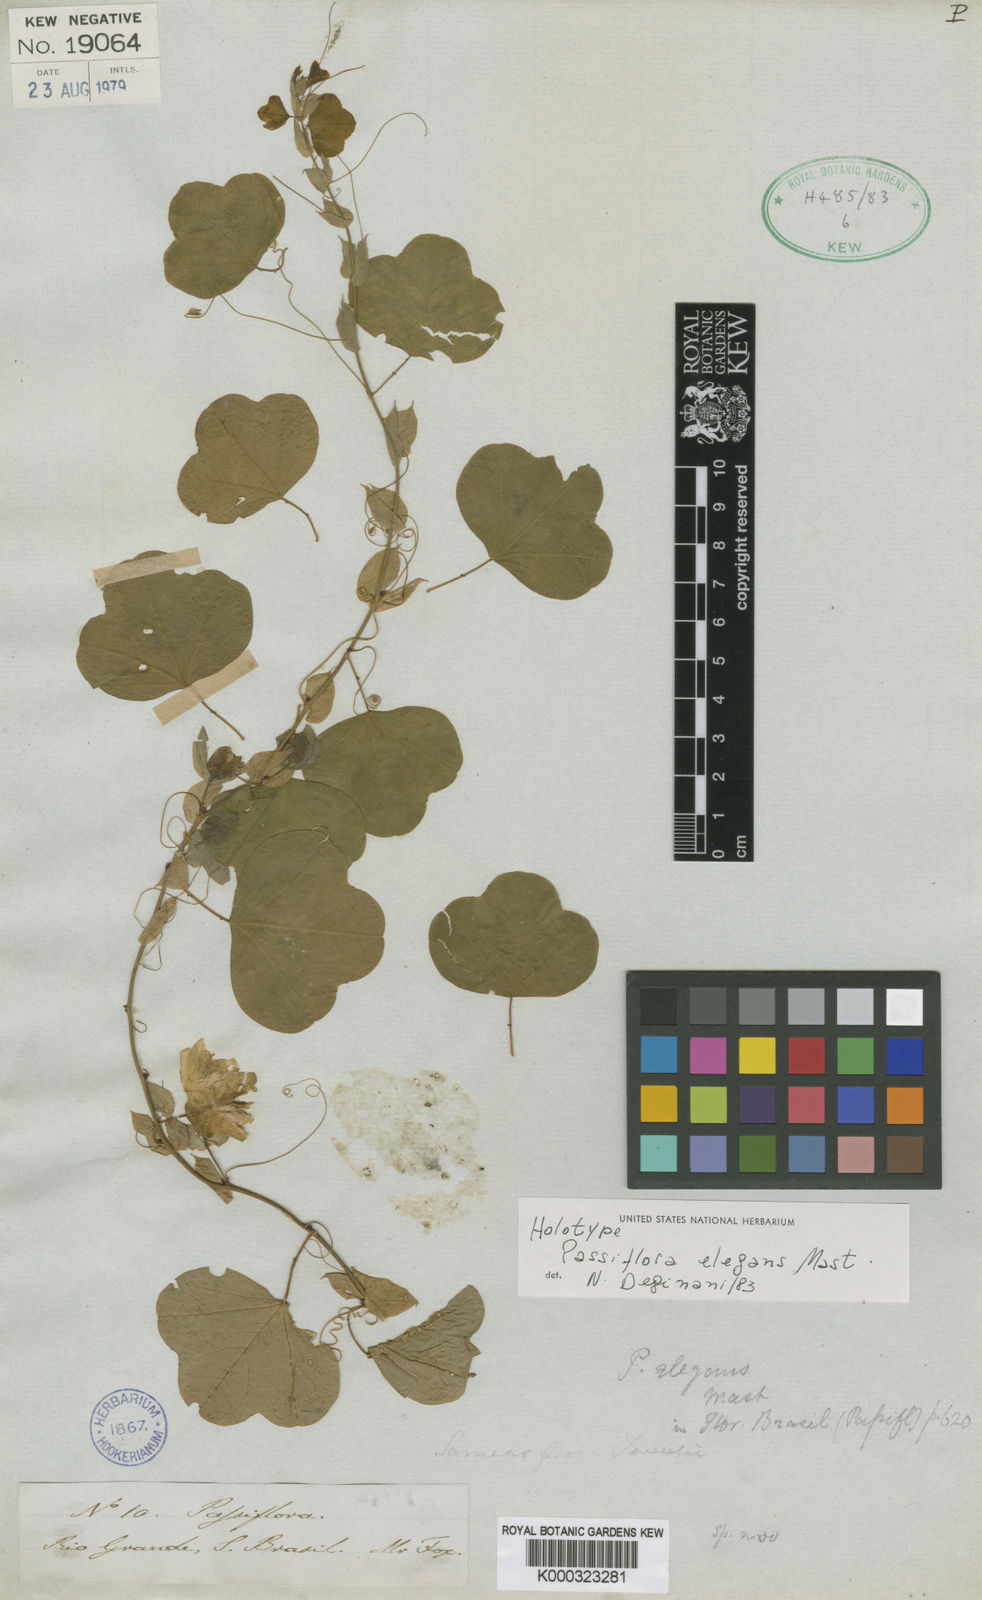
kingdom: Plantae
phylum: Tracheophyta
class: Magnoliopsida
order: Malpighiales
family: Passifloraceae
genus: Passiflora
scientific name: Passiflora elegans
